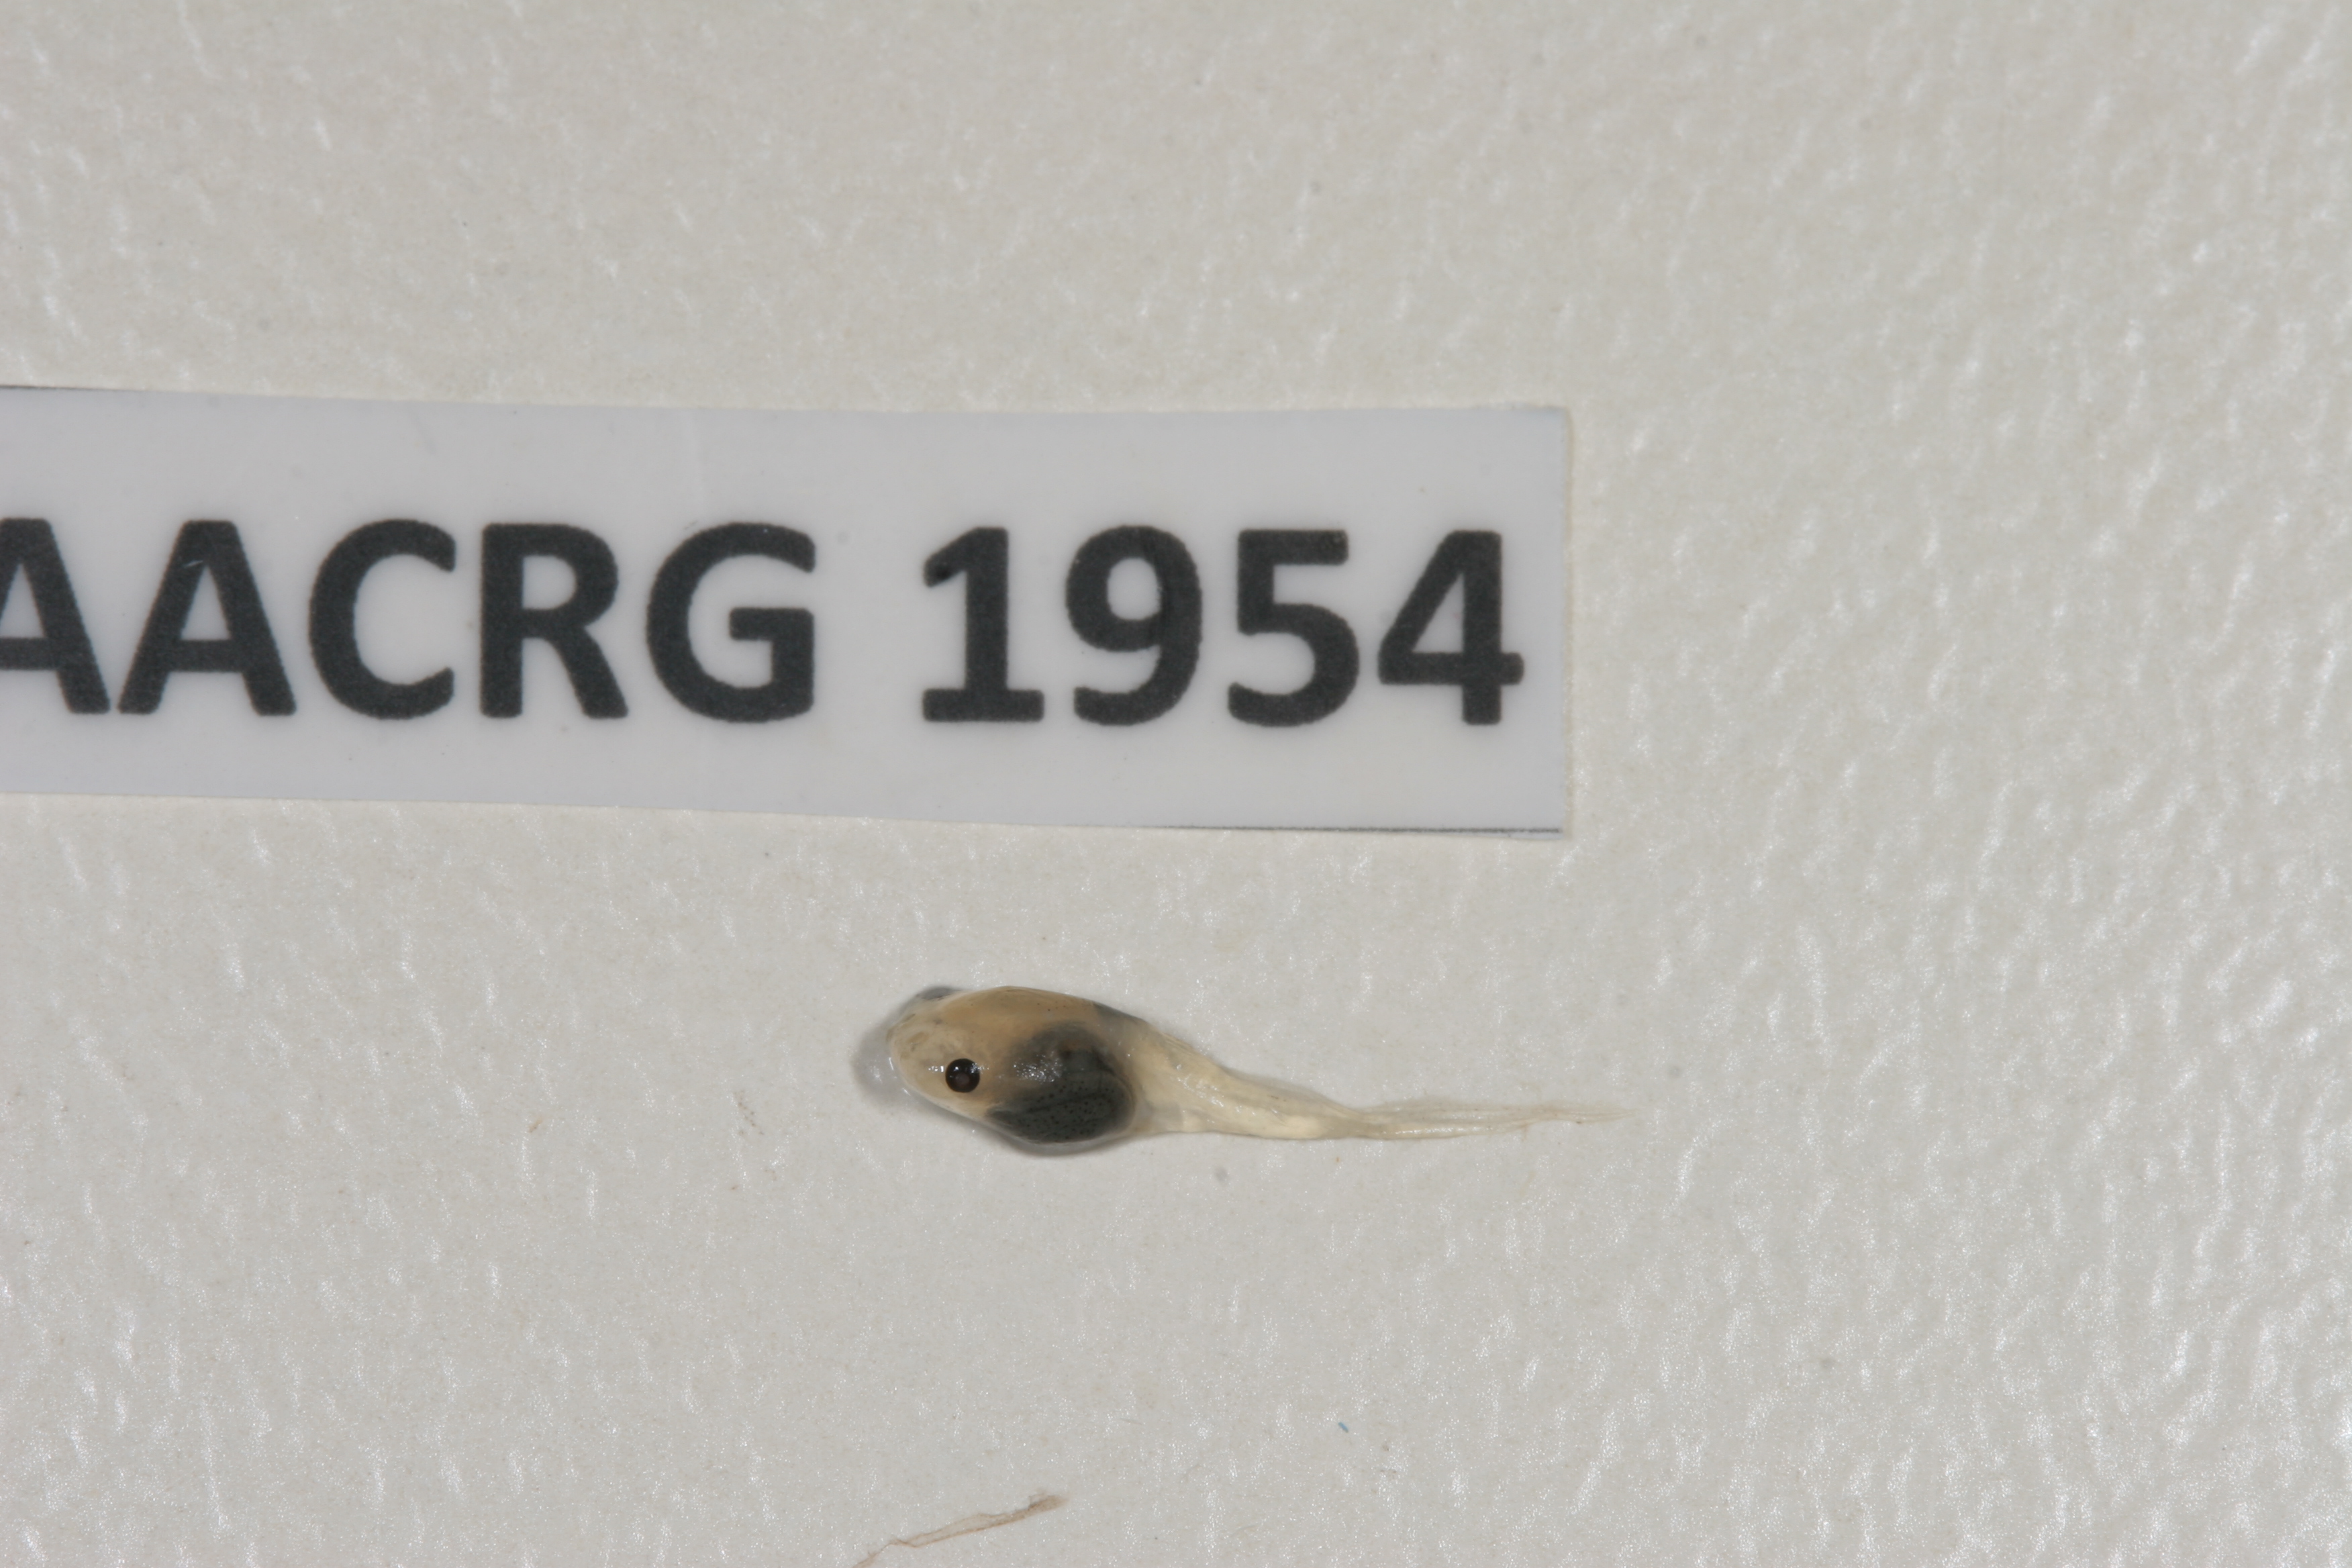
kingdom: Animalia
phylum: Chordata
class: Amphibia
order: Anura
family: Pipidae
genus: Xenopus
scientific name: Xenopus petersii
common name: Peters' clawed frog
